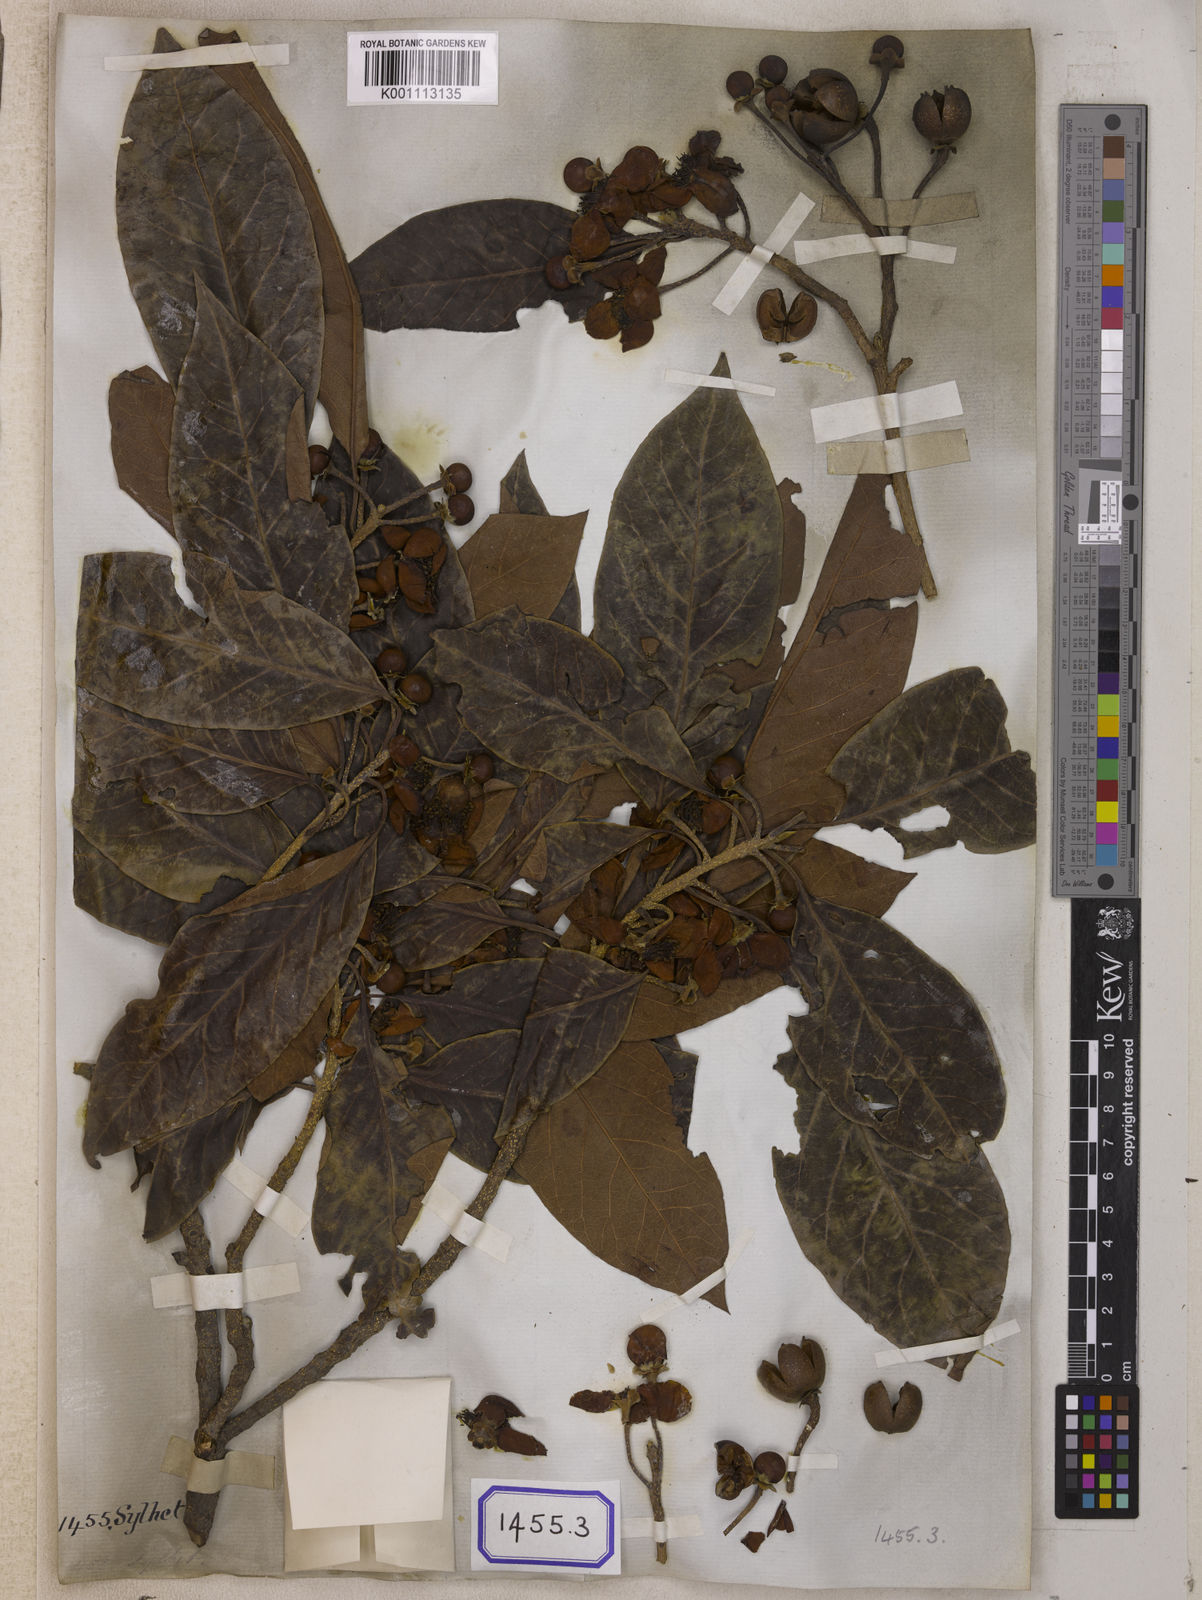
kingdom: Plantae
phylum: Tracheophyta
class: Magnoliopsida
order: Ericales
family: Theaceae
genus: Schima
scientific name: Schima wallichii
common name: Schima
